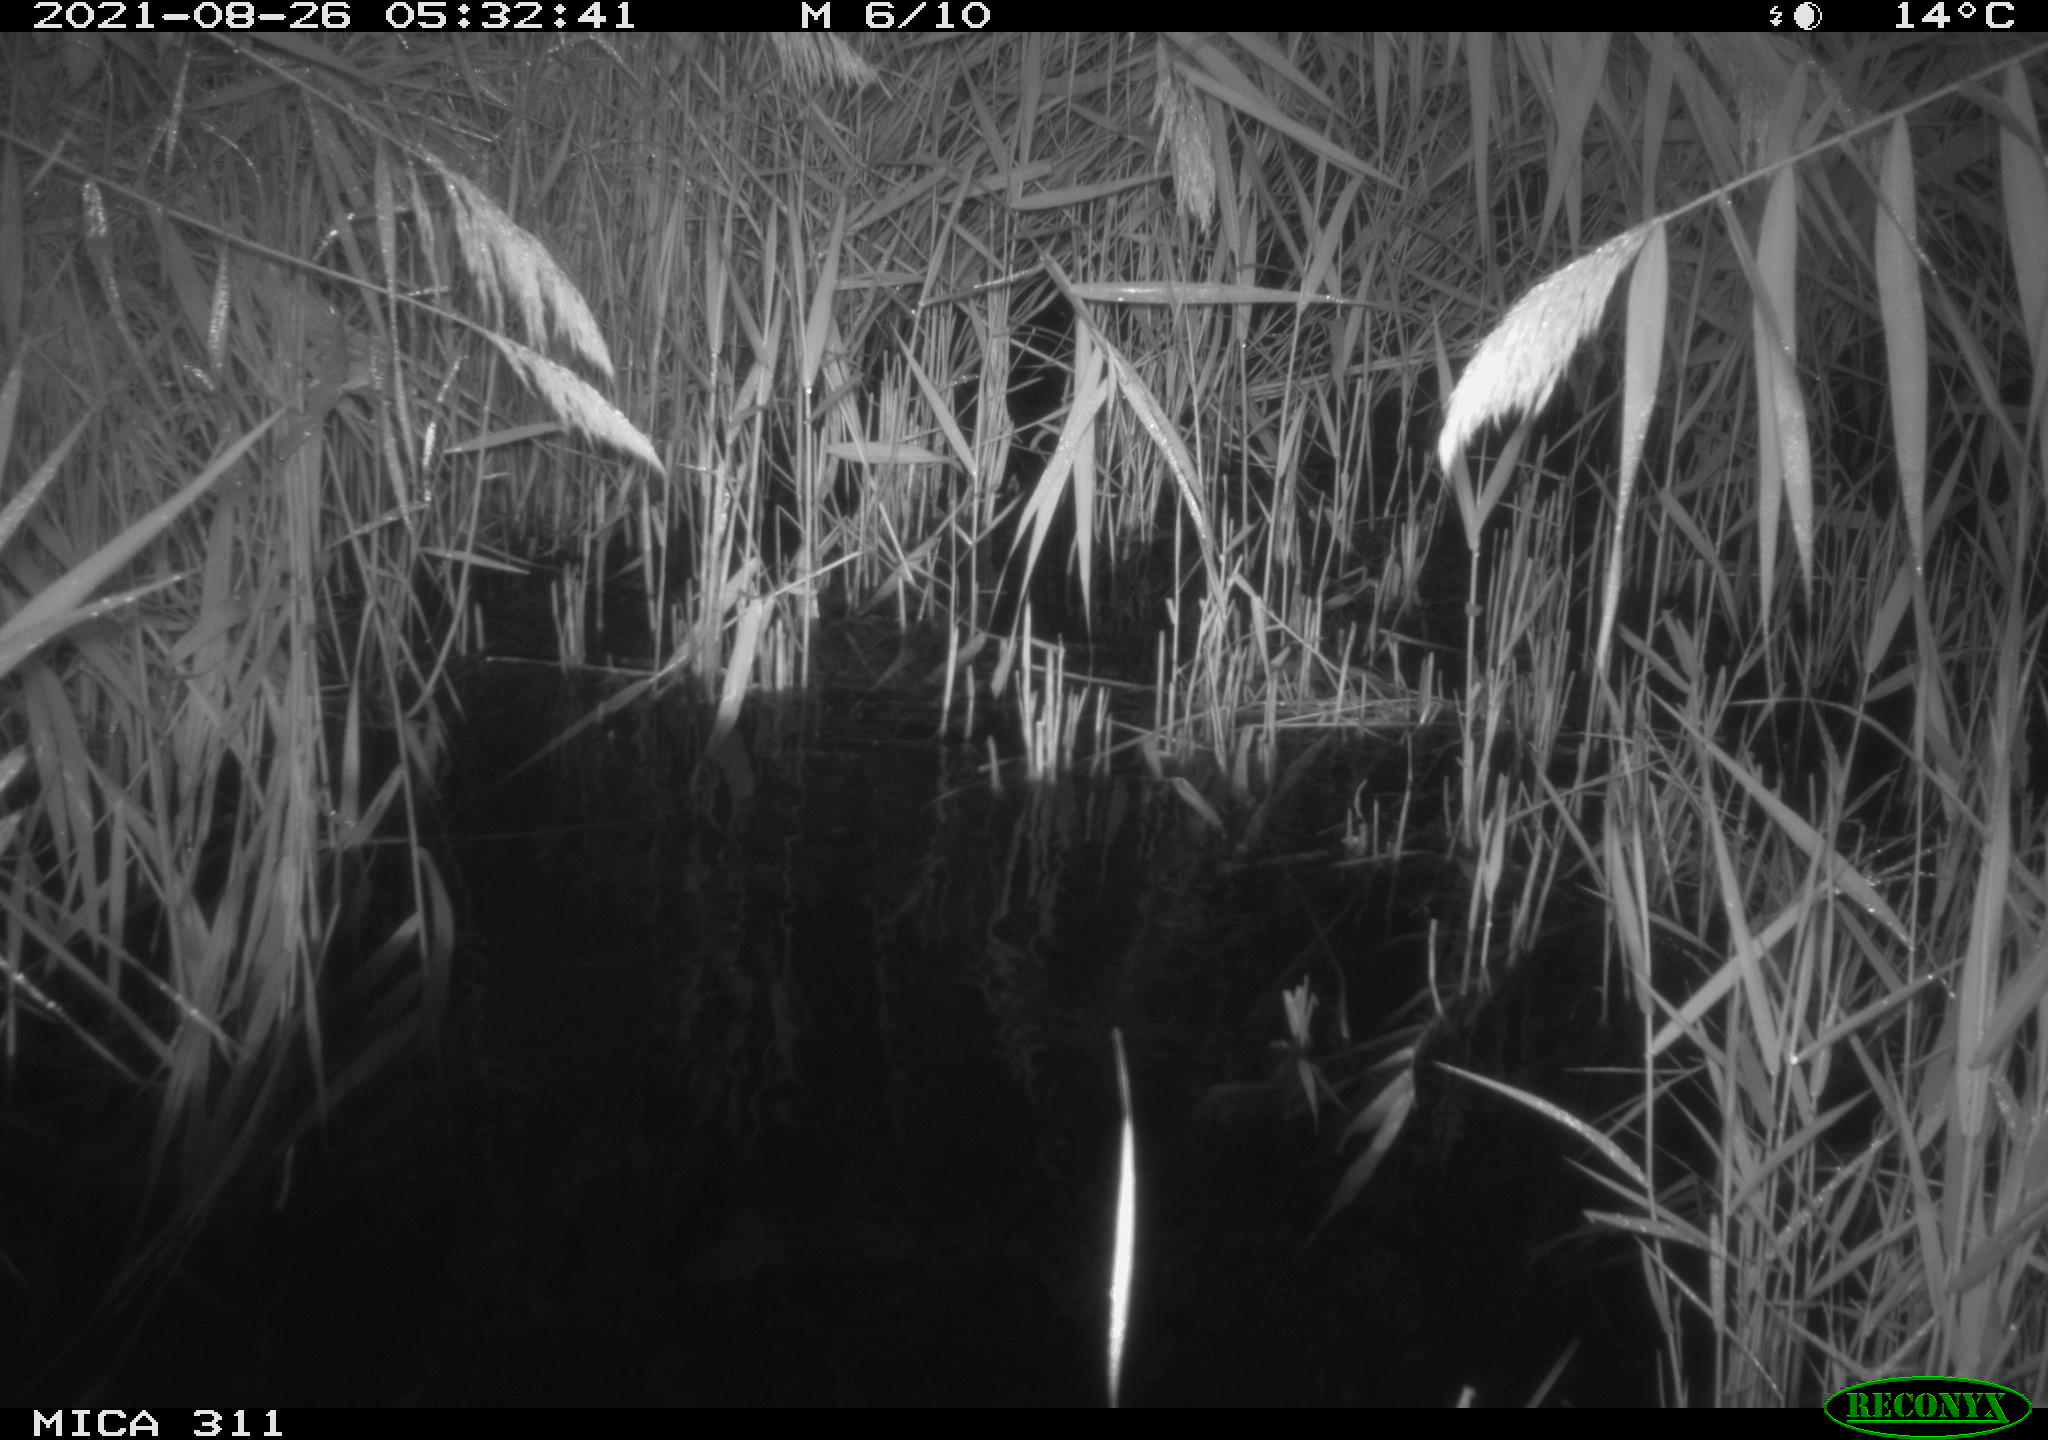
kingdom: Animalia
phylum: Chordata
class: Mammalia
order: Rodentia
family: Muridae
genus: Rattus
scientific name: Rattus norvegicus
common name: Brown rat
